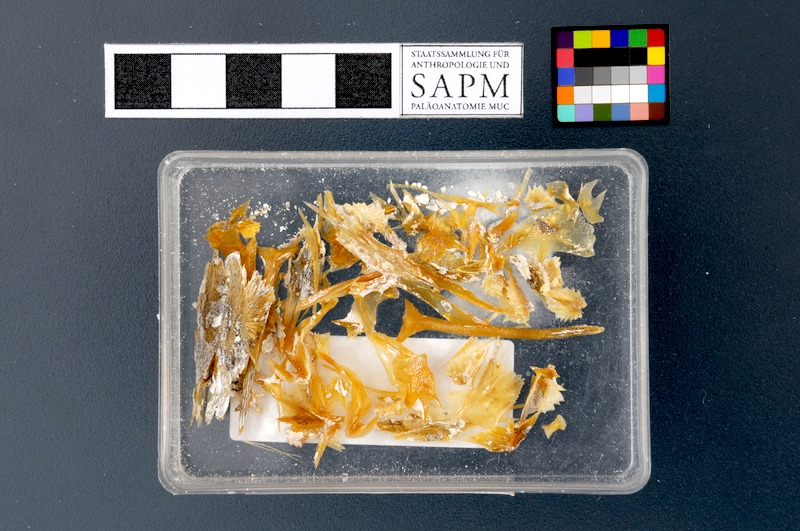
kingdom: Animalia
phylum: Chordata
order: Acipenseriformes
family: Acipenseridae
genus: Acipenser
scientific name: Acipenser ruthenus
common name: Sterlet
